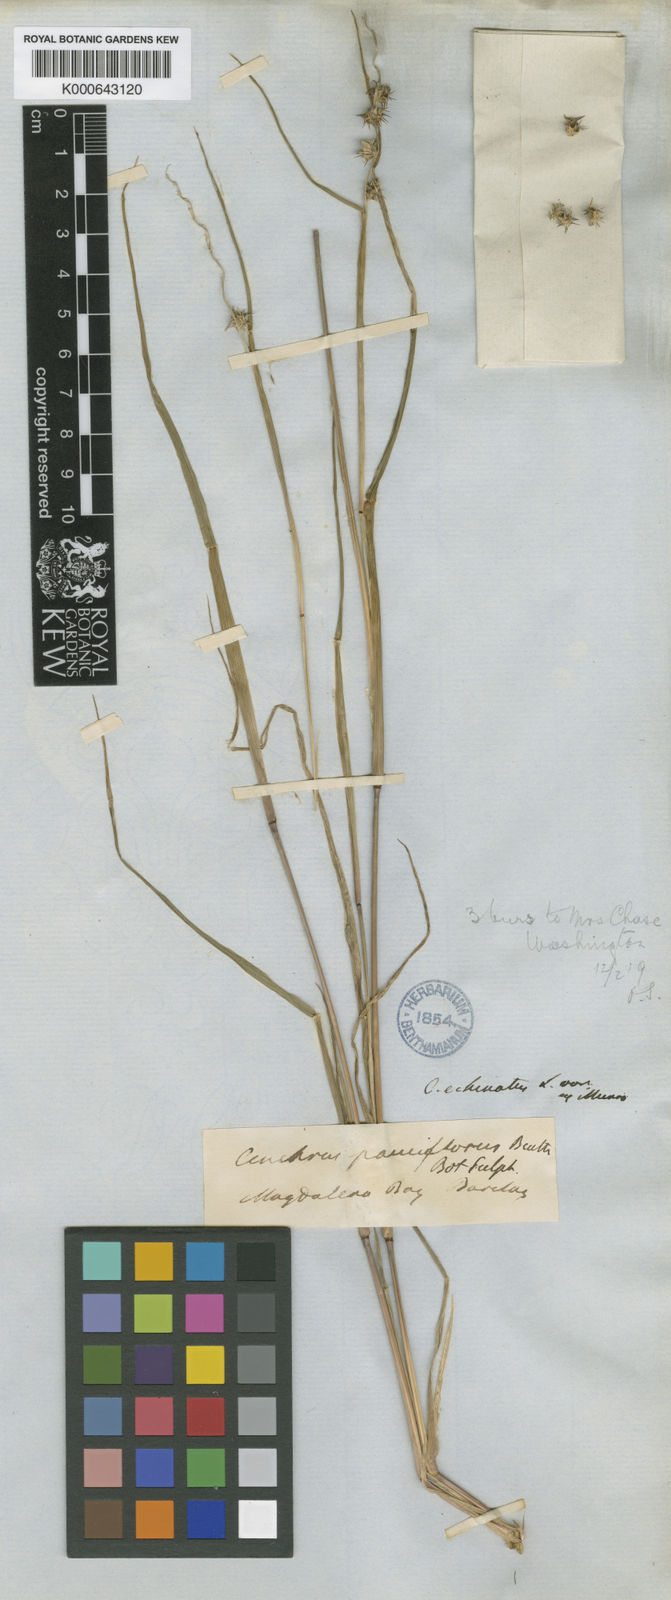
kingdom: Plantae
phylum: Tracheophyta
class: Liliopsida
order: Poales
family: Poaceae
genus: Cenchrus
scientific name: Cenchrus spinifex
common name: Coast sandbur
